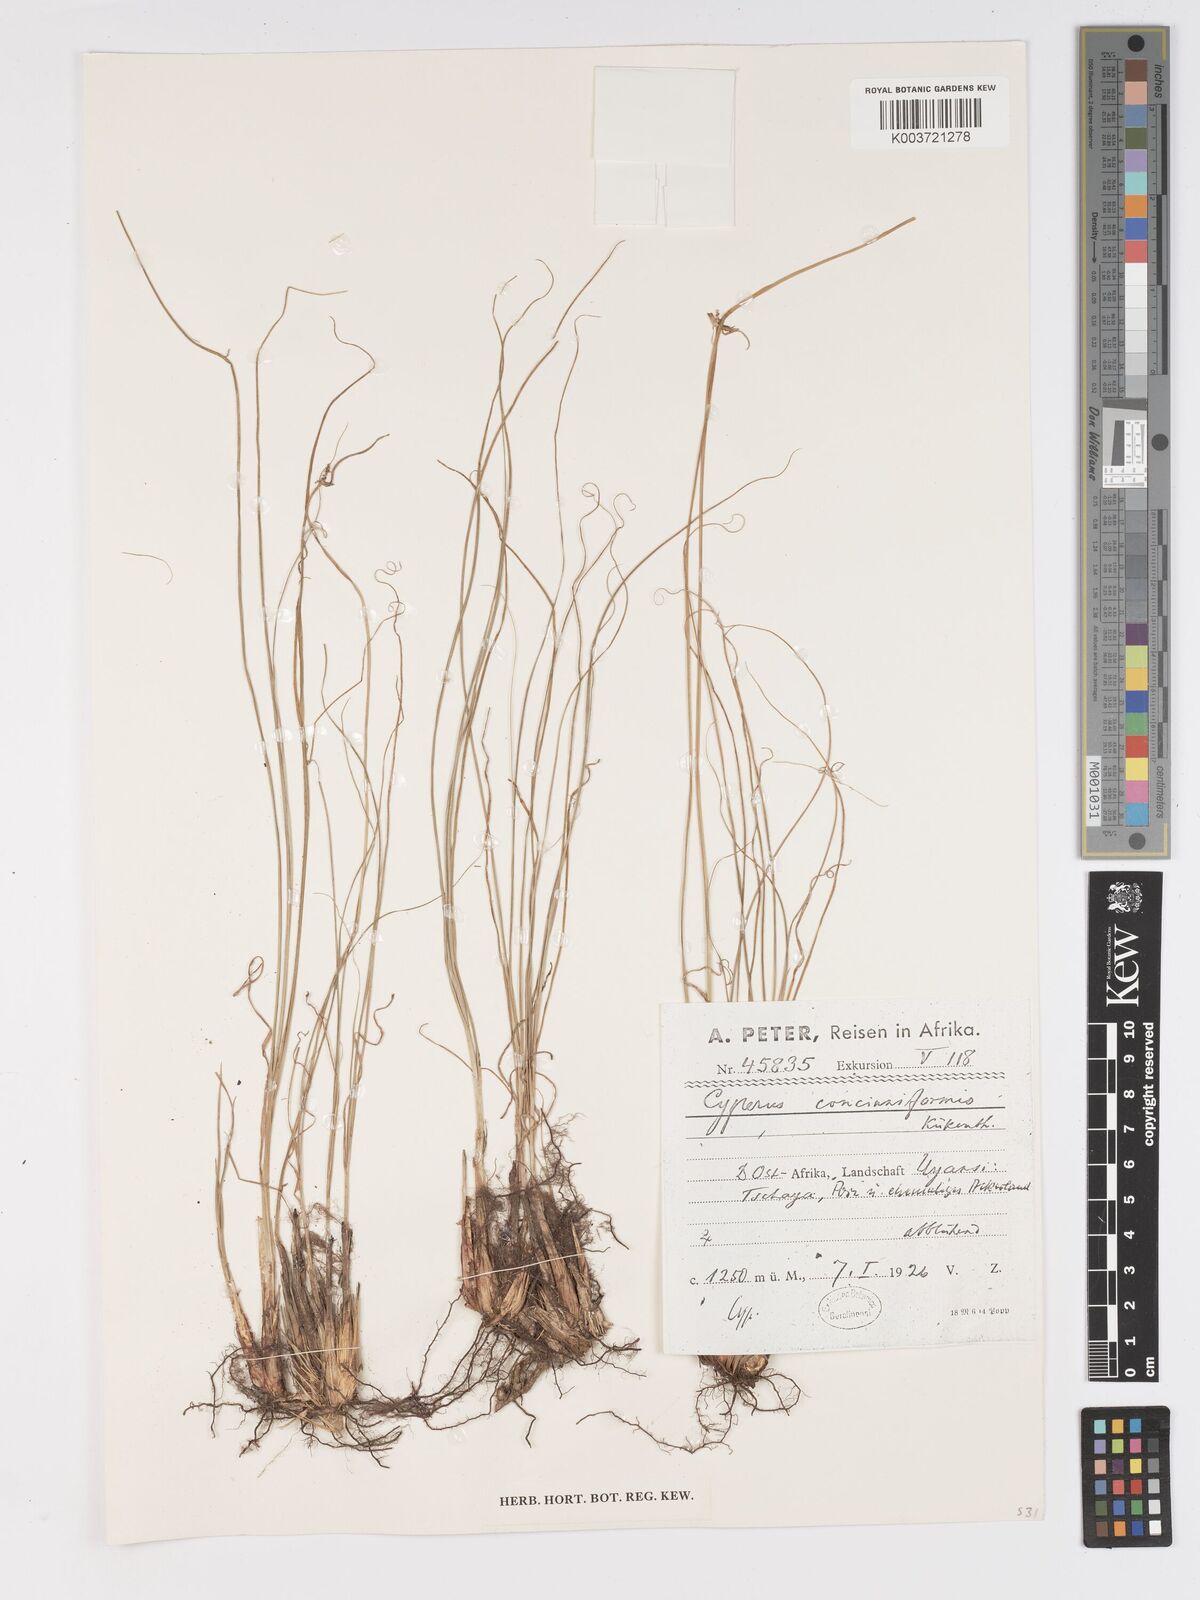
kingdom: Plantae
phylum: Tracheophyta
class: Liliopsida
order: Poales
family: Cyperaceae
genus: Cyperus
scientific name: Cyperus amauropus
